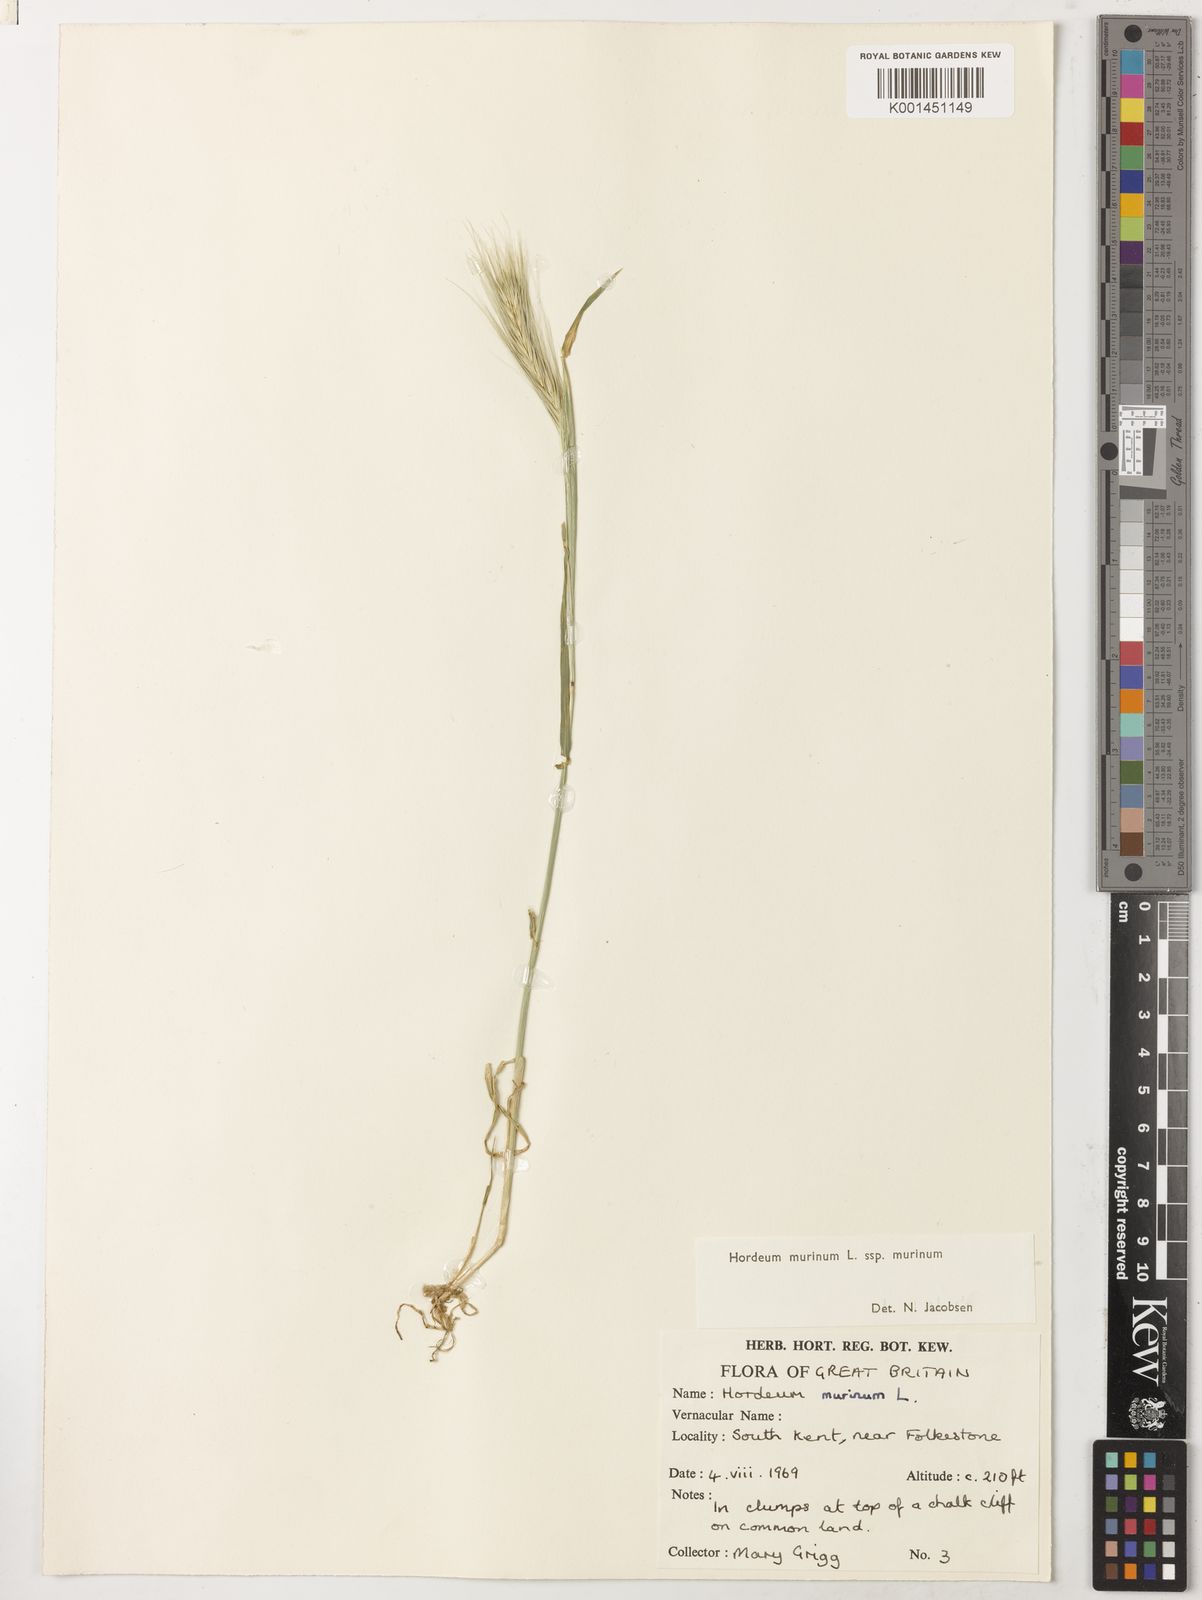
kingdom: Plantae
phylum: Tracheophyta
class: Liliopsida
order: Poales
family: Poaceae
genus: Hordeum
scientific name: Hordeum murinum
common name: Wall barley
